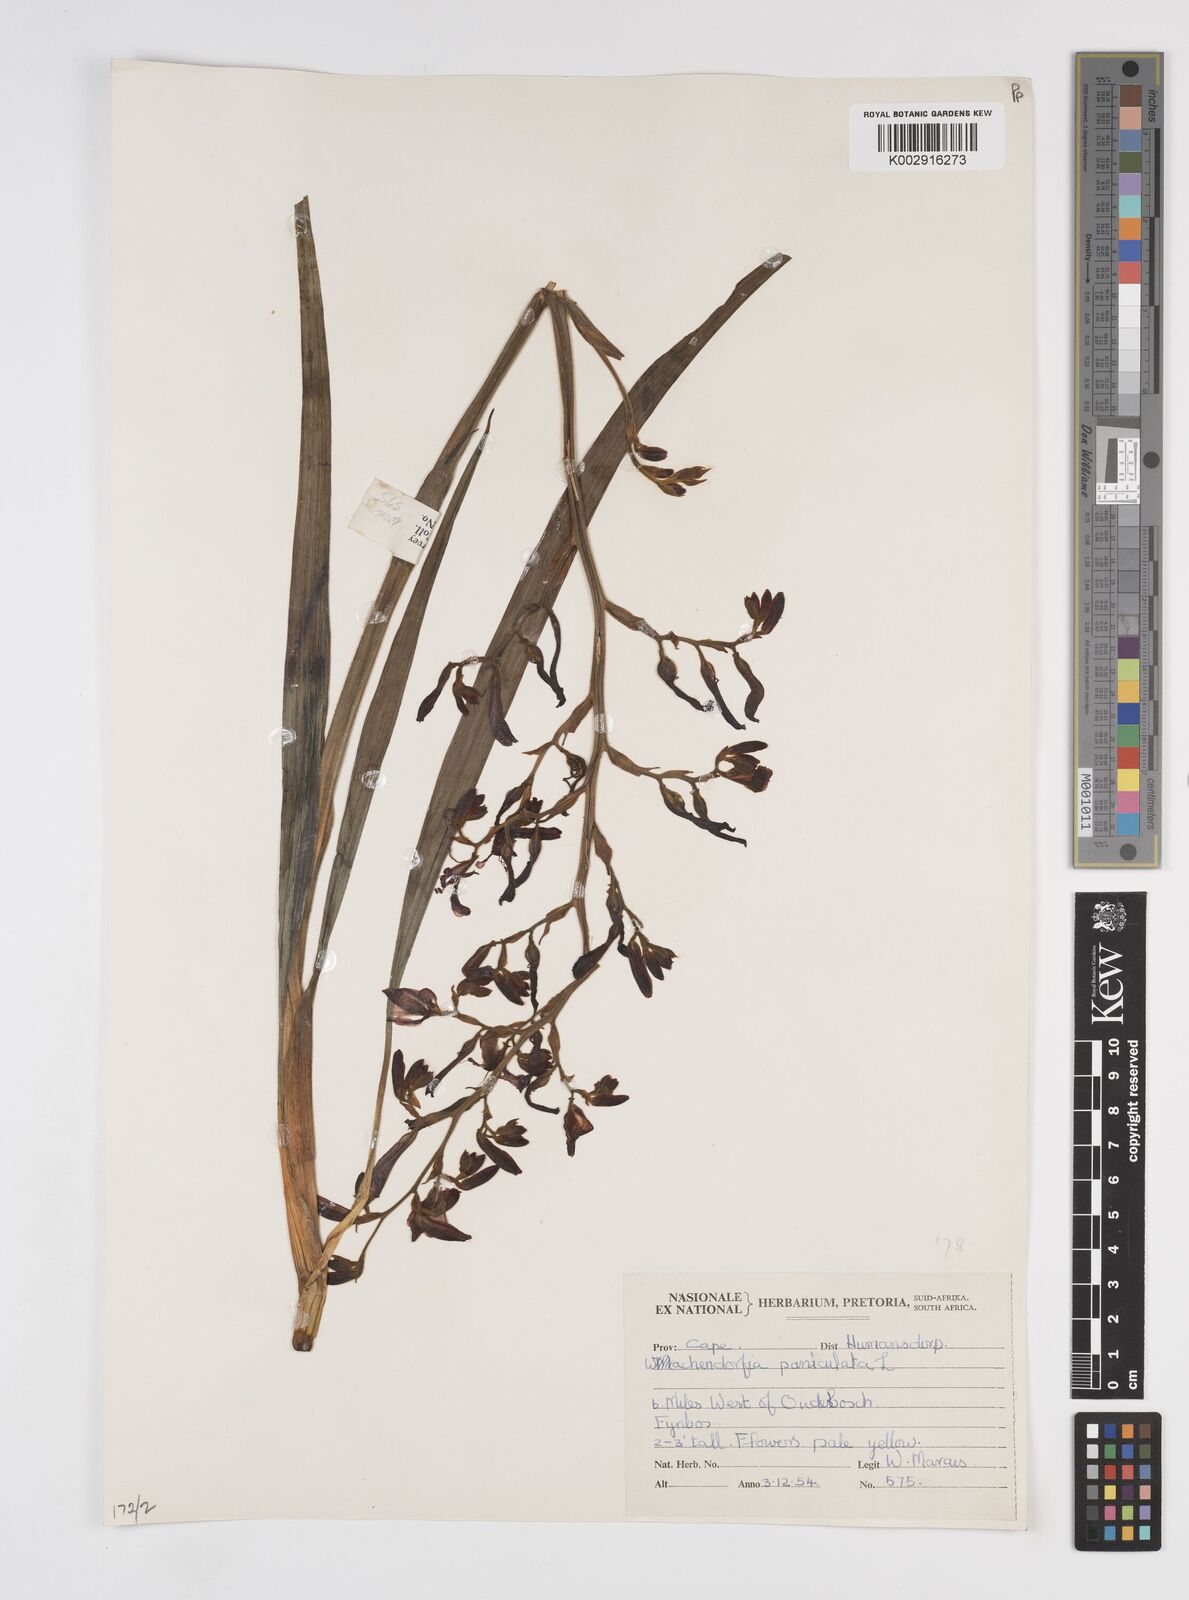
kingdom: Plantae
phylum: Tracheophyta
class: Liliopsida
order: Commelinales
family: Haemodoraceae
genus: Wachendorfia
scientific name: Wachendorfia paniculata
